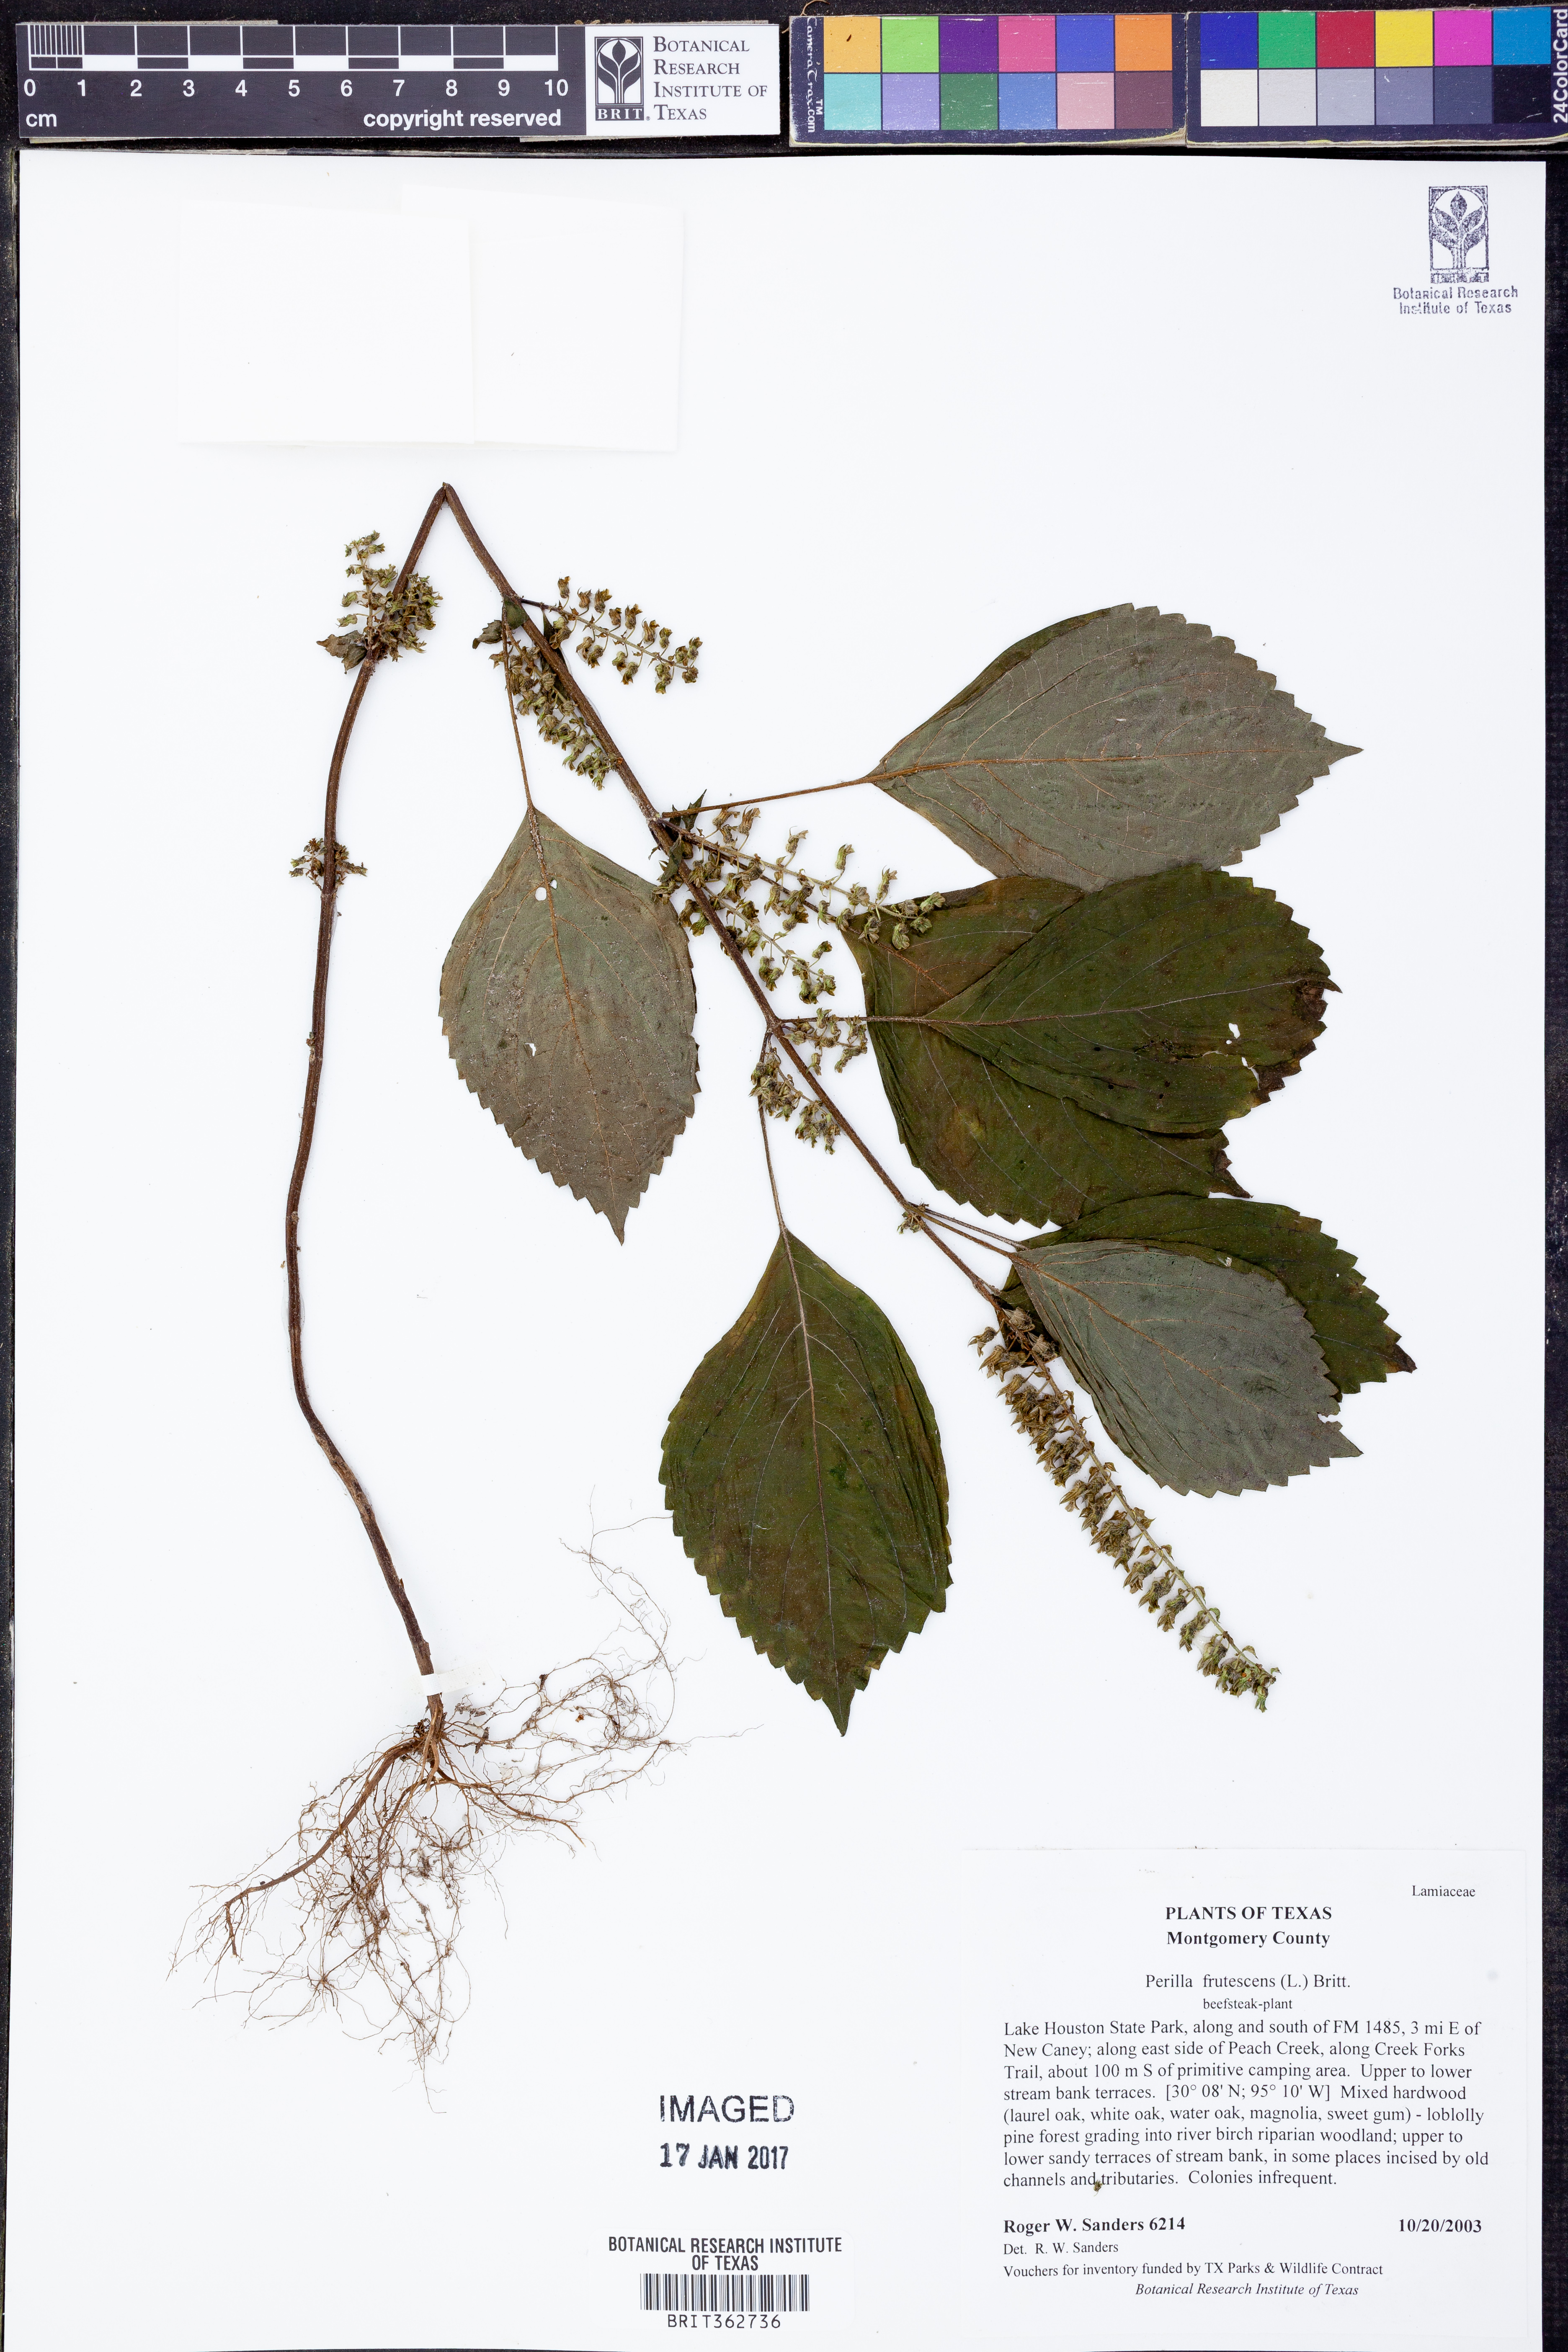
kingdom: Plantae
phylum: Tracheophyta
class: Magnoliopsida
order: Lamiales
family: Lamiaceae
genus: Perilla
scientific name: Perilla frutescens
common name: Perilla
